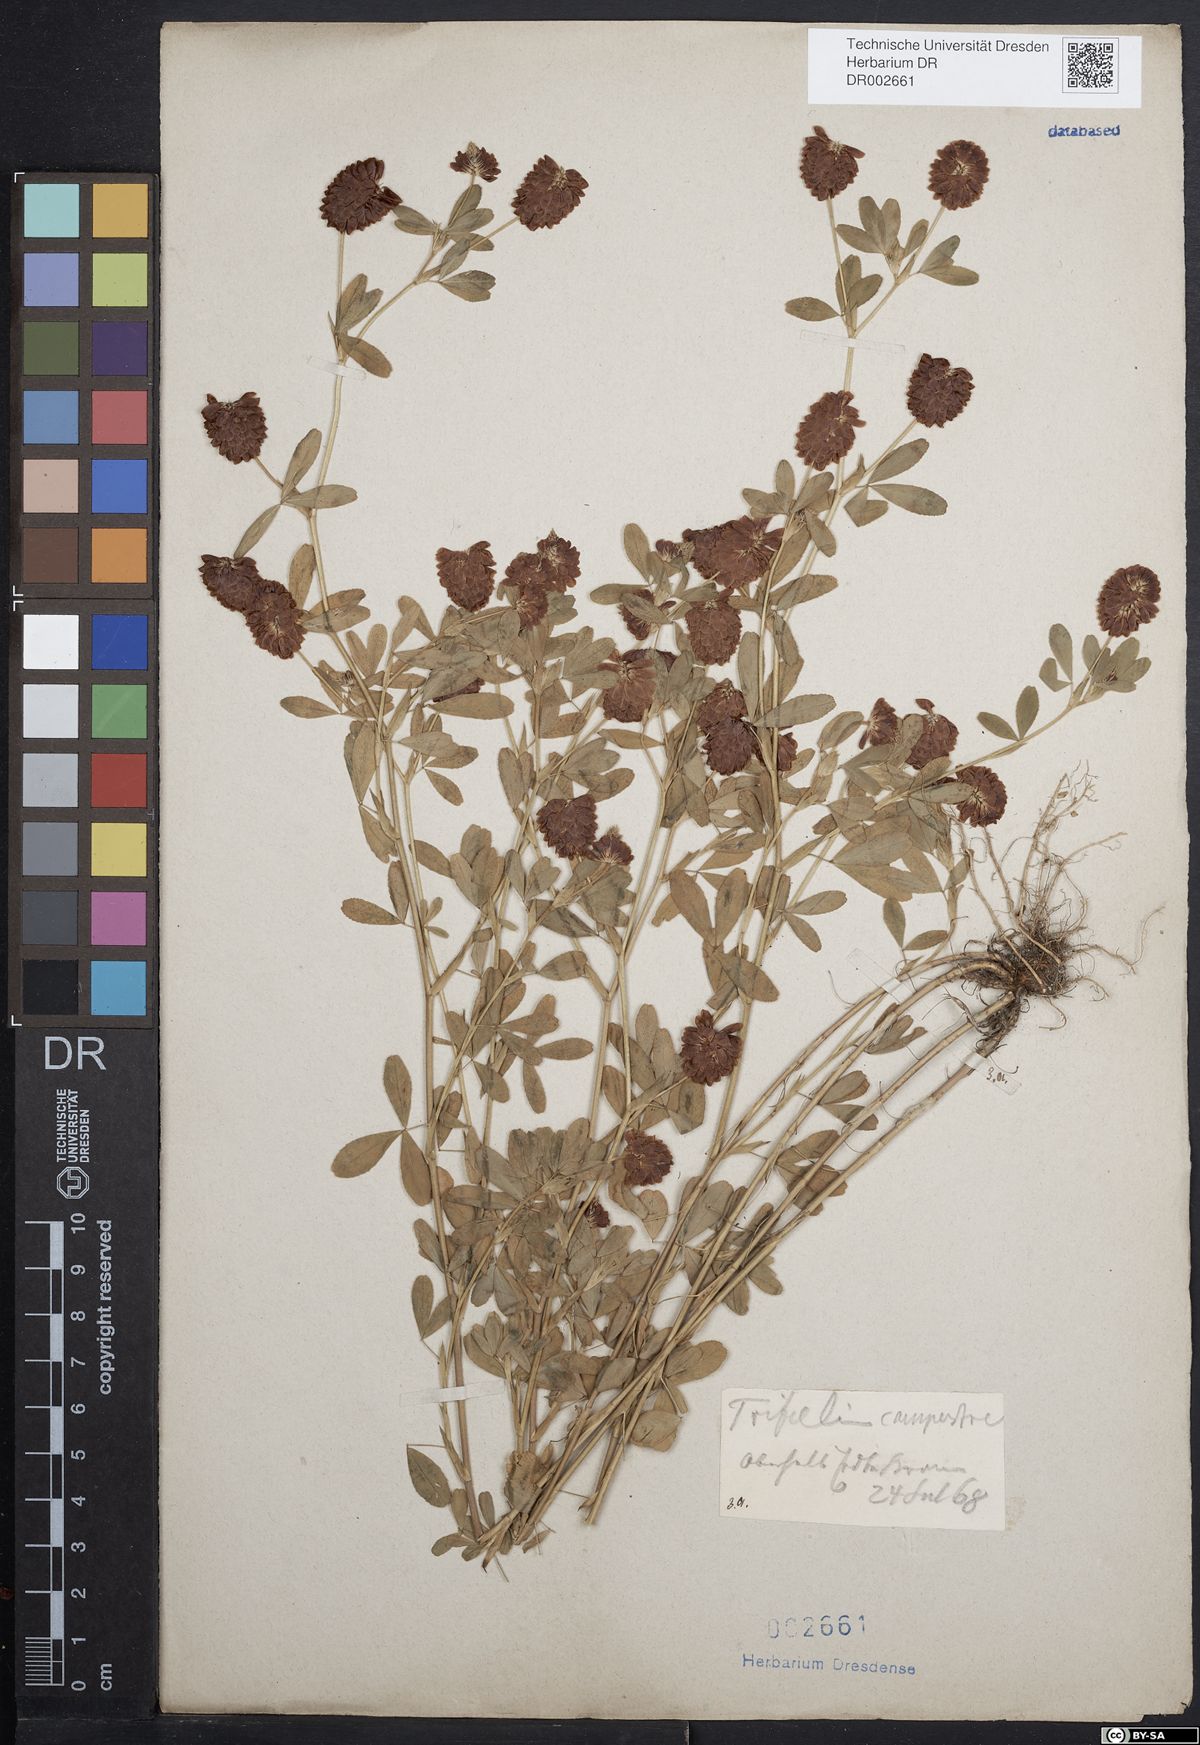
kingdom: Plantae
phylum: Tracheophyta
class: Magnoliopsida
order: Fabales
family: Fabaceae
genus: Trifolium
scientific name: Trifolium campestre
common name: Field clover
